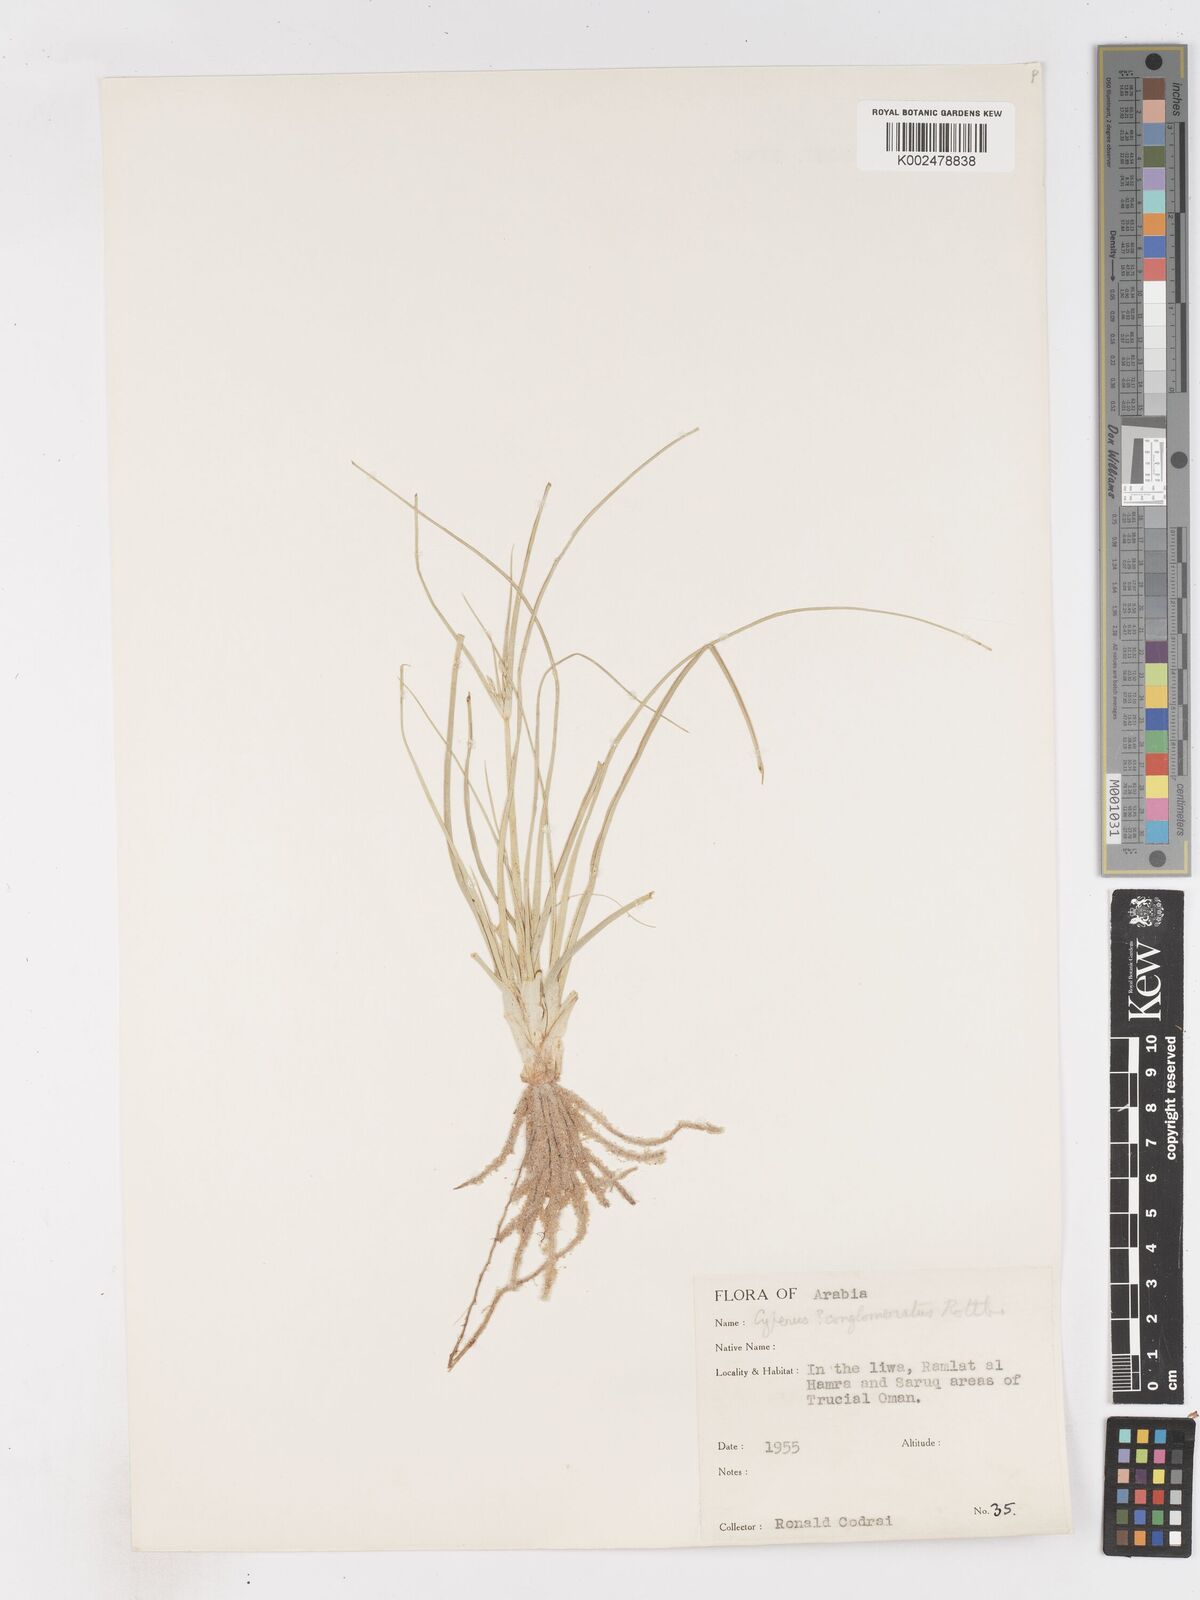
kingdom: Plantae
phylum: Tracheophyta
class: Liliopsida
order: Poales
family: Cyperaceae
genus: Cyperus
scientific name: Cyperus aucheri
